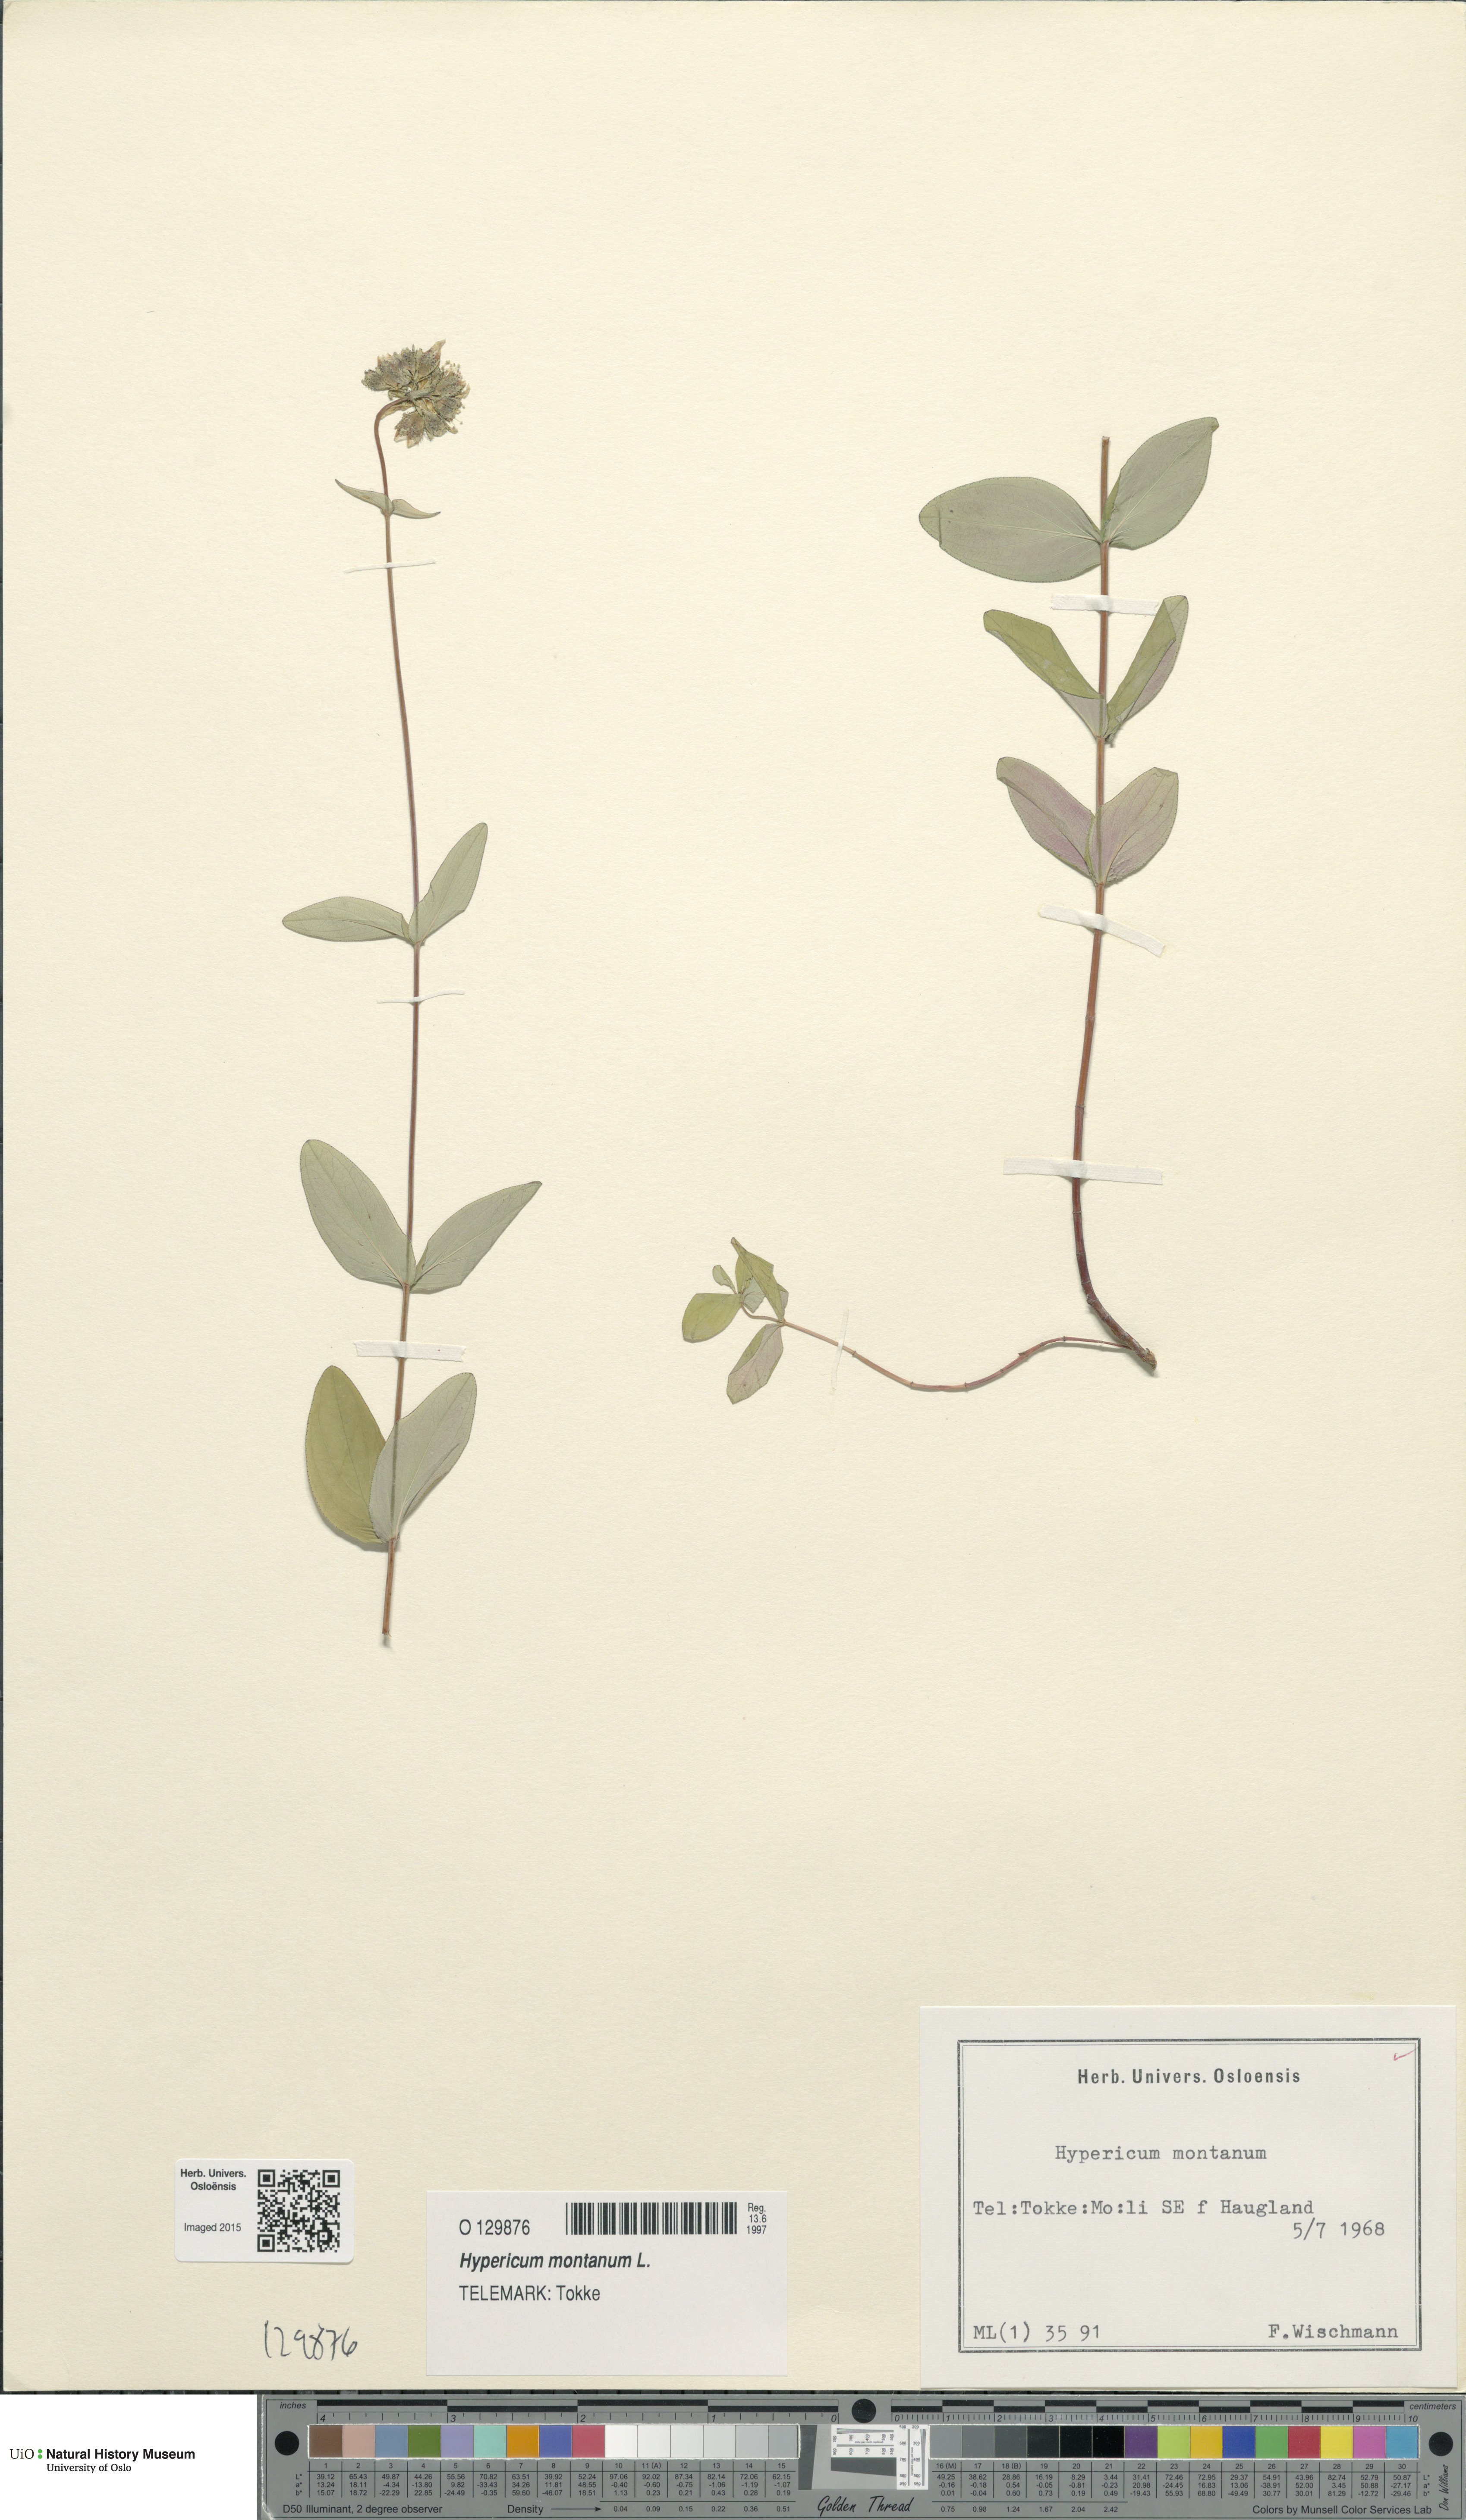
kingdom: Plantae
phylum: Tracheophyta
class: Magnoliopsida
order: Malpighiales
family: Hypericaceae
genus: Hypericum
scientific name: Hypericum montanum
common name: Pale st. john's-wort
